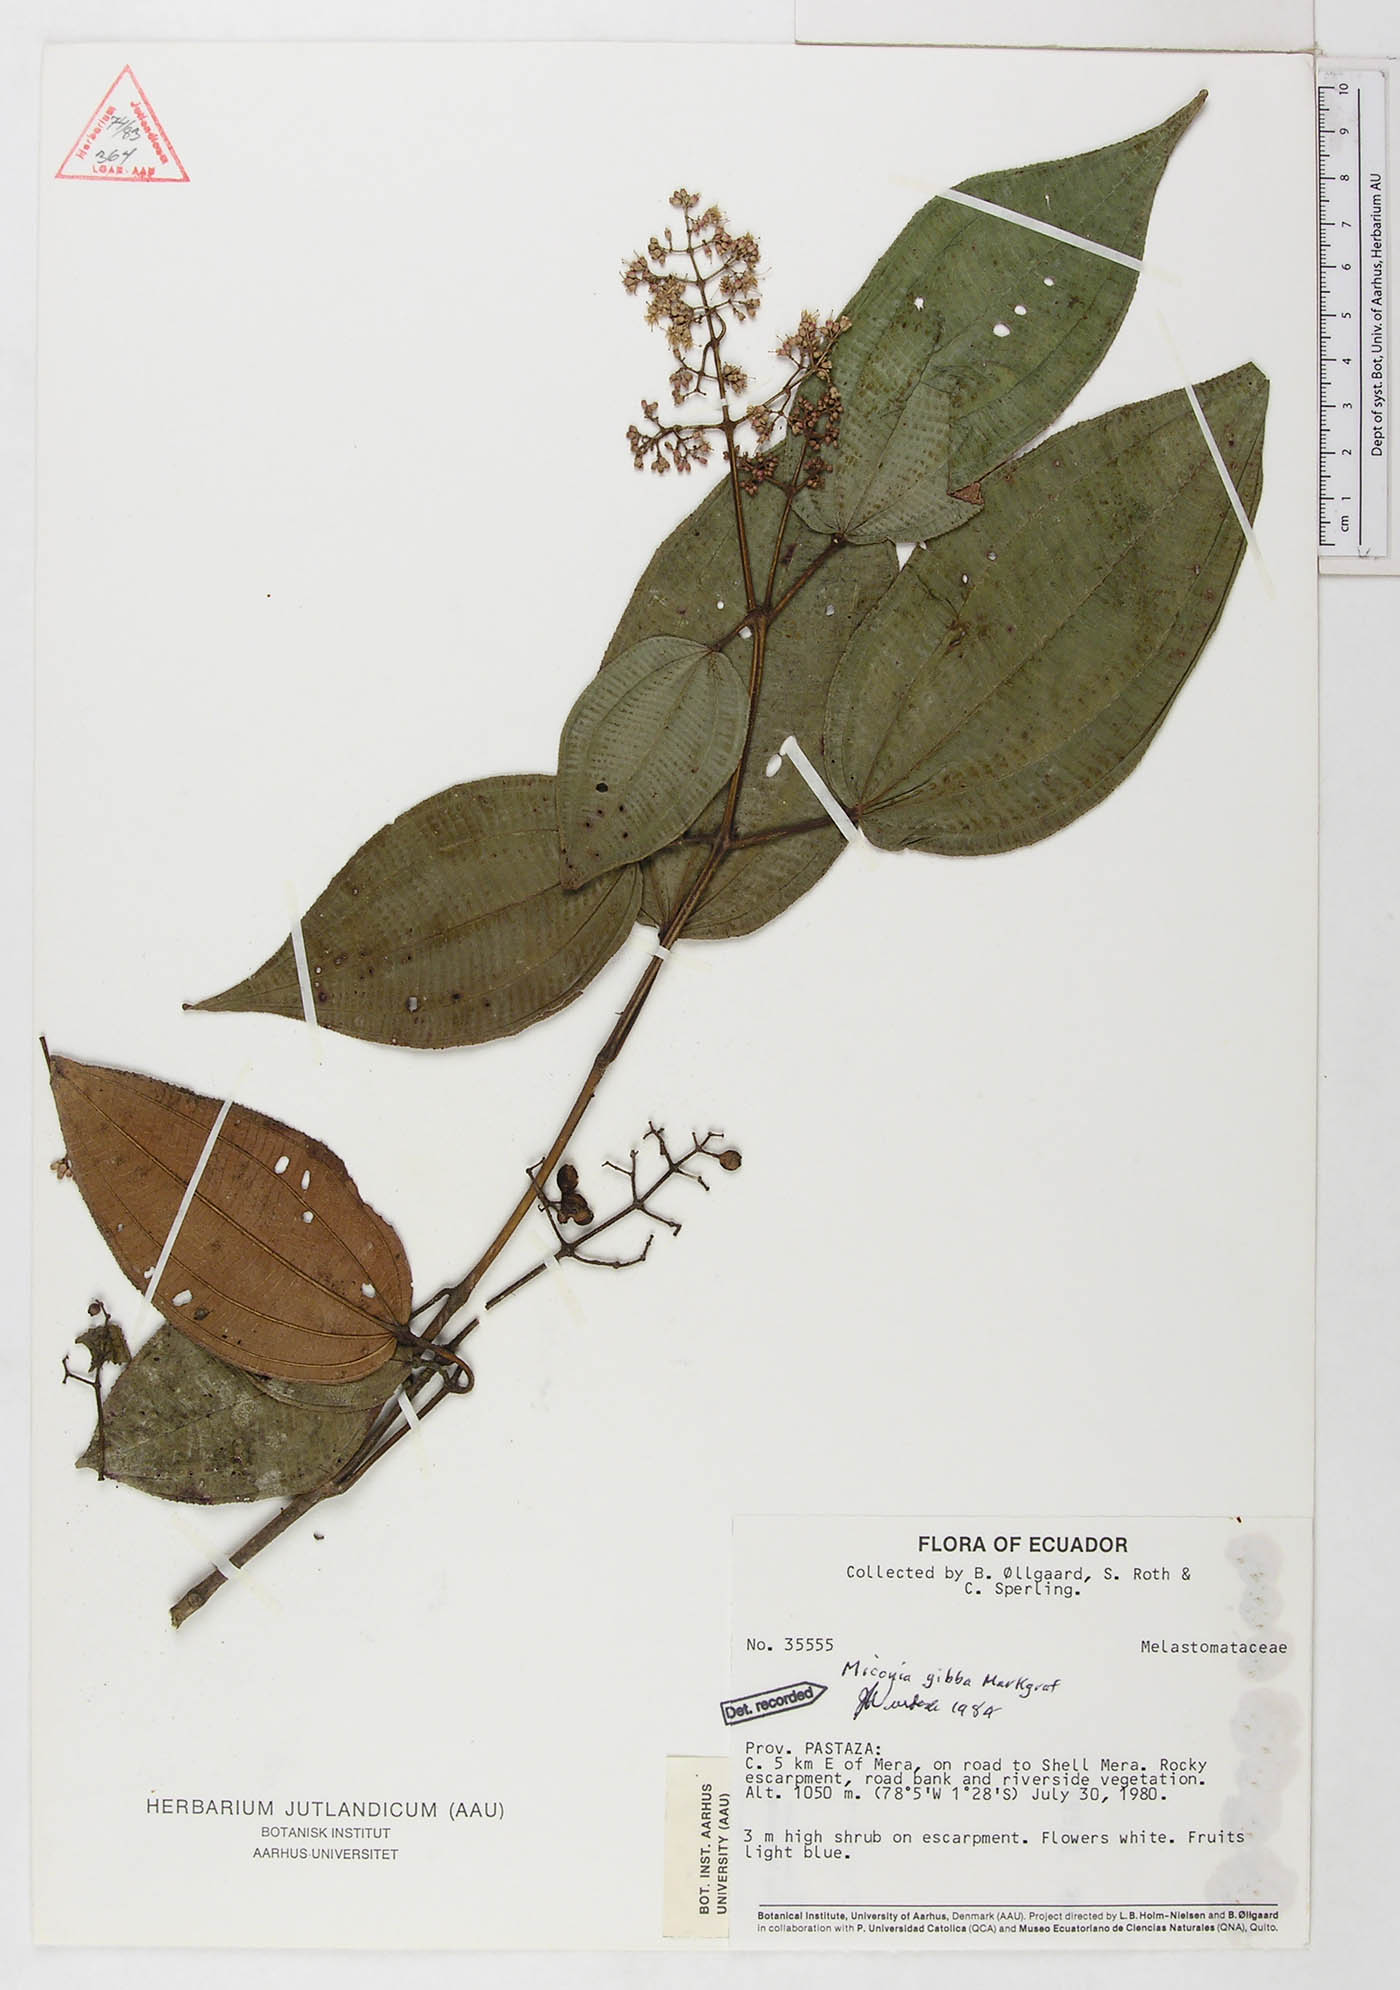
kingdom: Plantae
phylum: Tracheophyta
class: Magnoliopsida
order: Myrtales
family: Melastomataceae
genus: Miconia
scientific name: Miconia gibba
